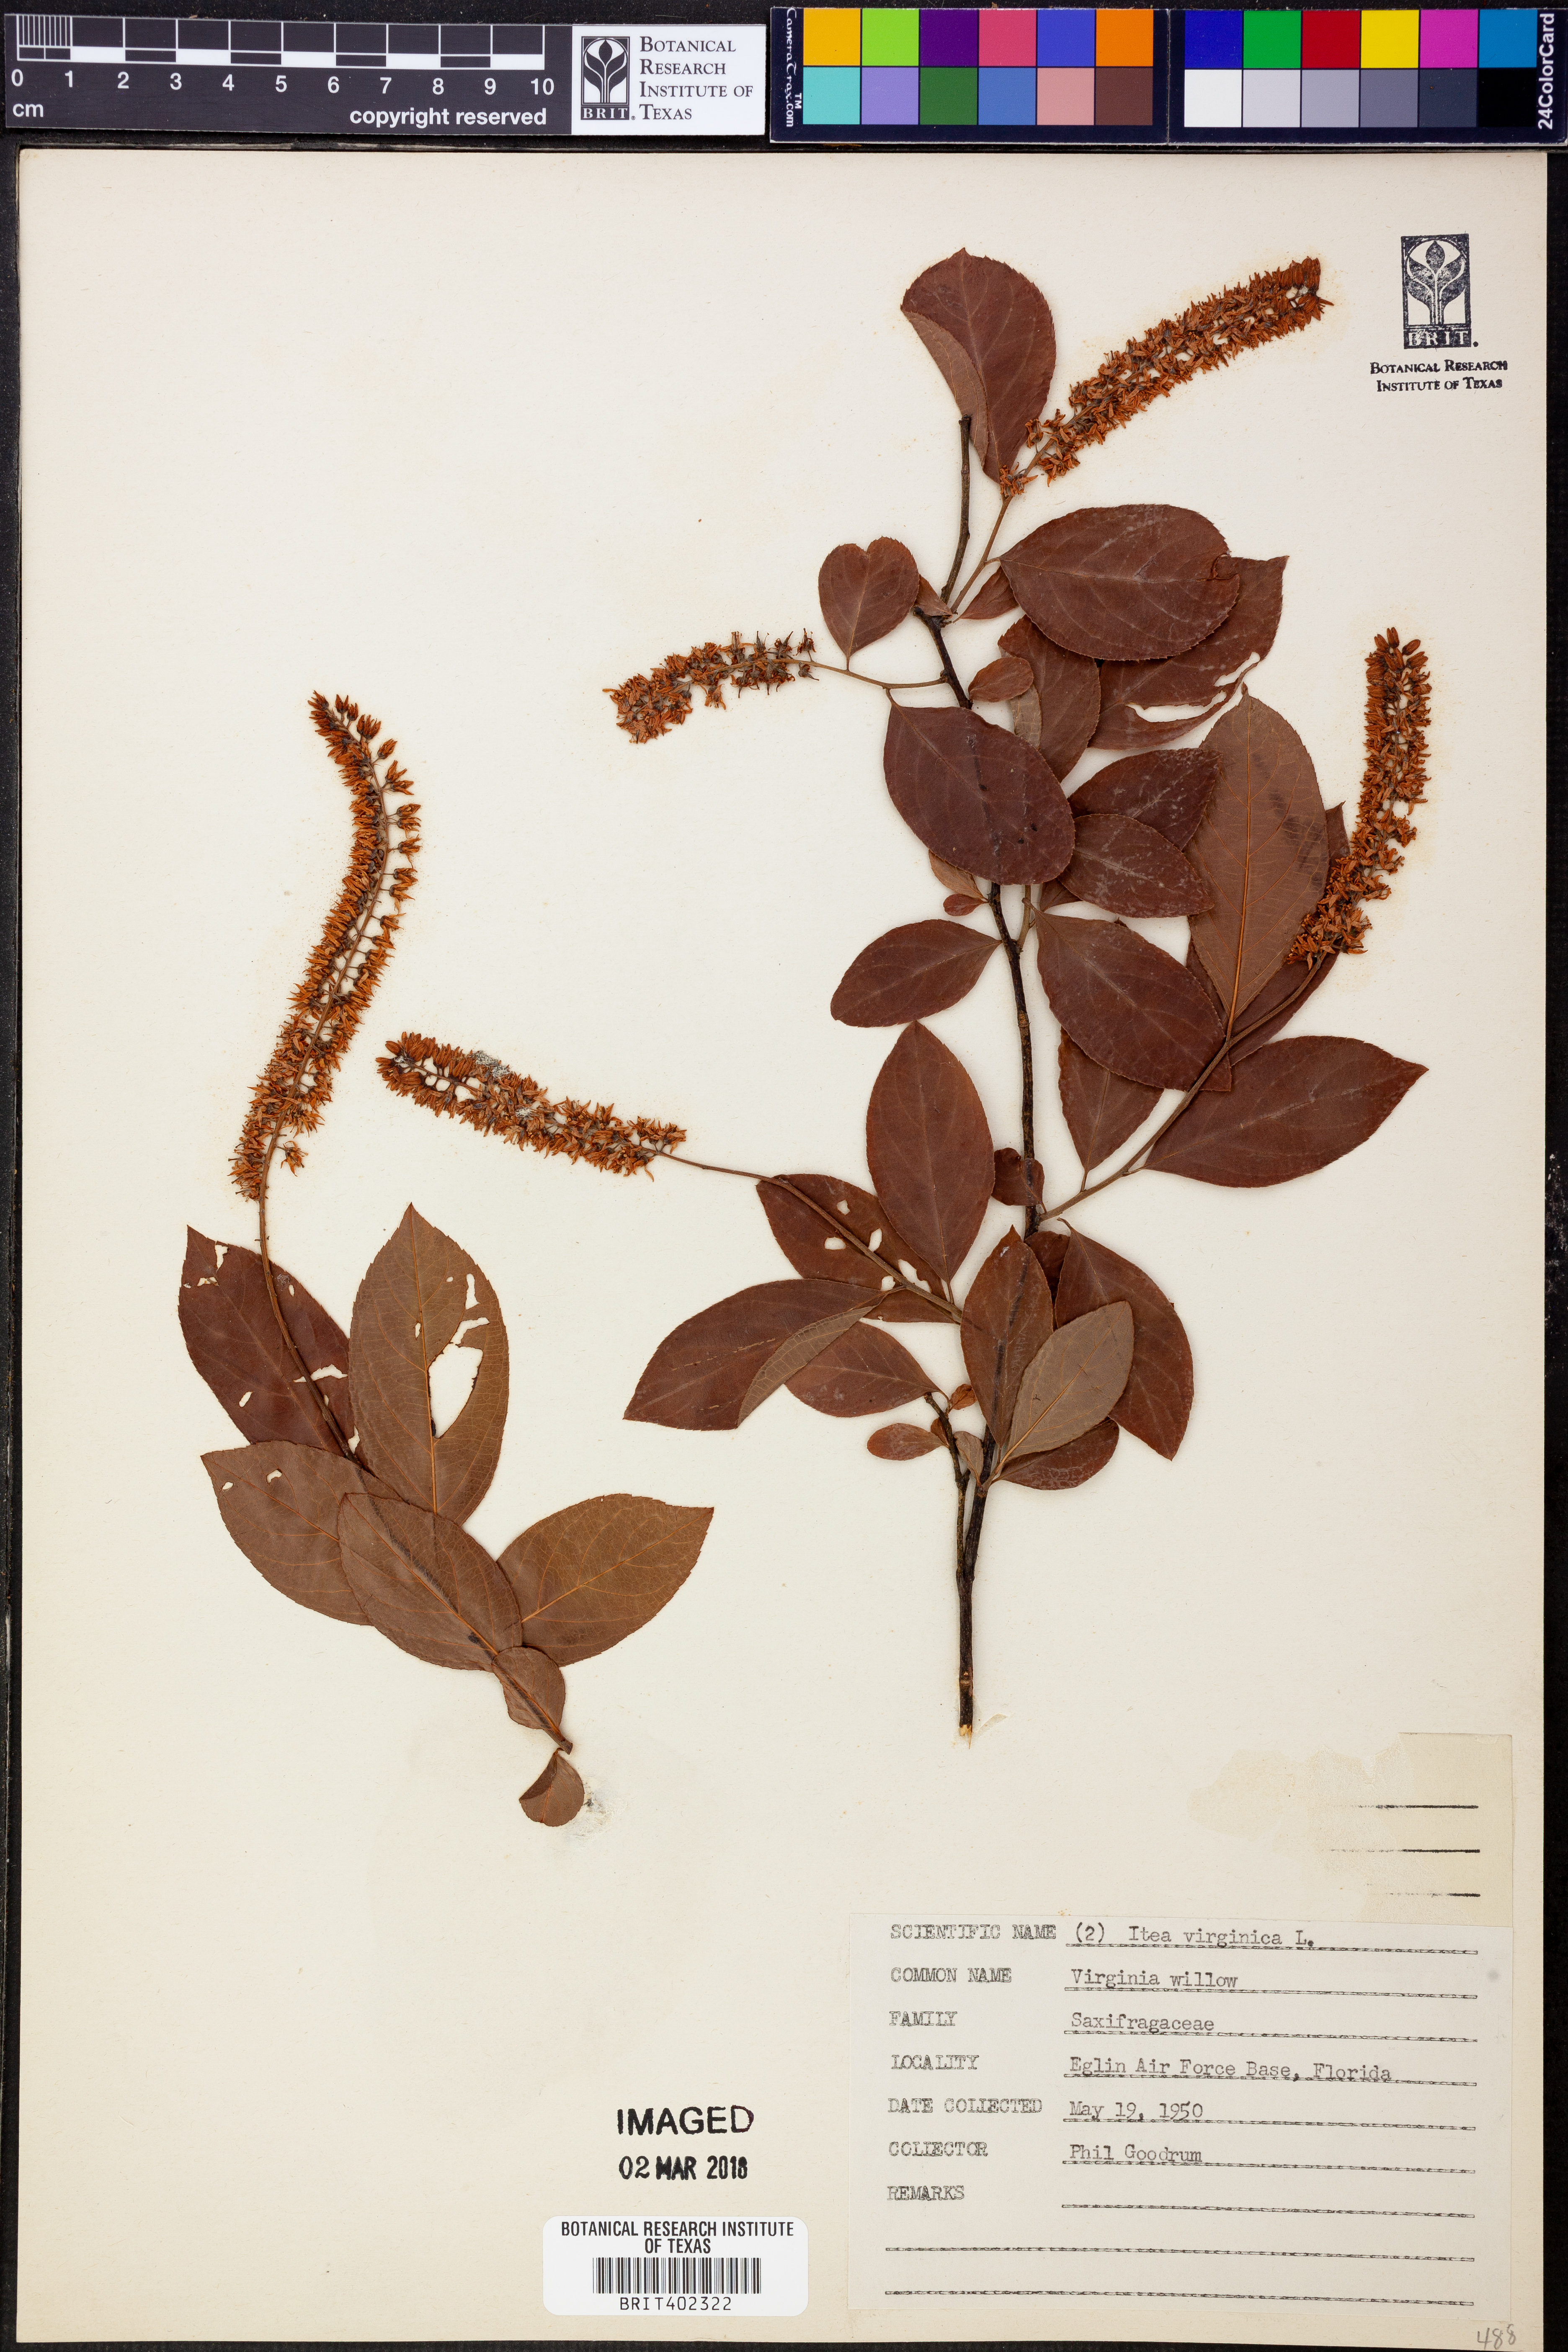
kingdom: Plantae
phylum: Tracheophyta
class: Magnoliopsida
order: Saxifragales
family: Iteaceae
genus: Itea
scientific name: Itea virginica
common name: Sweetspire
